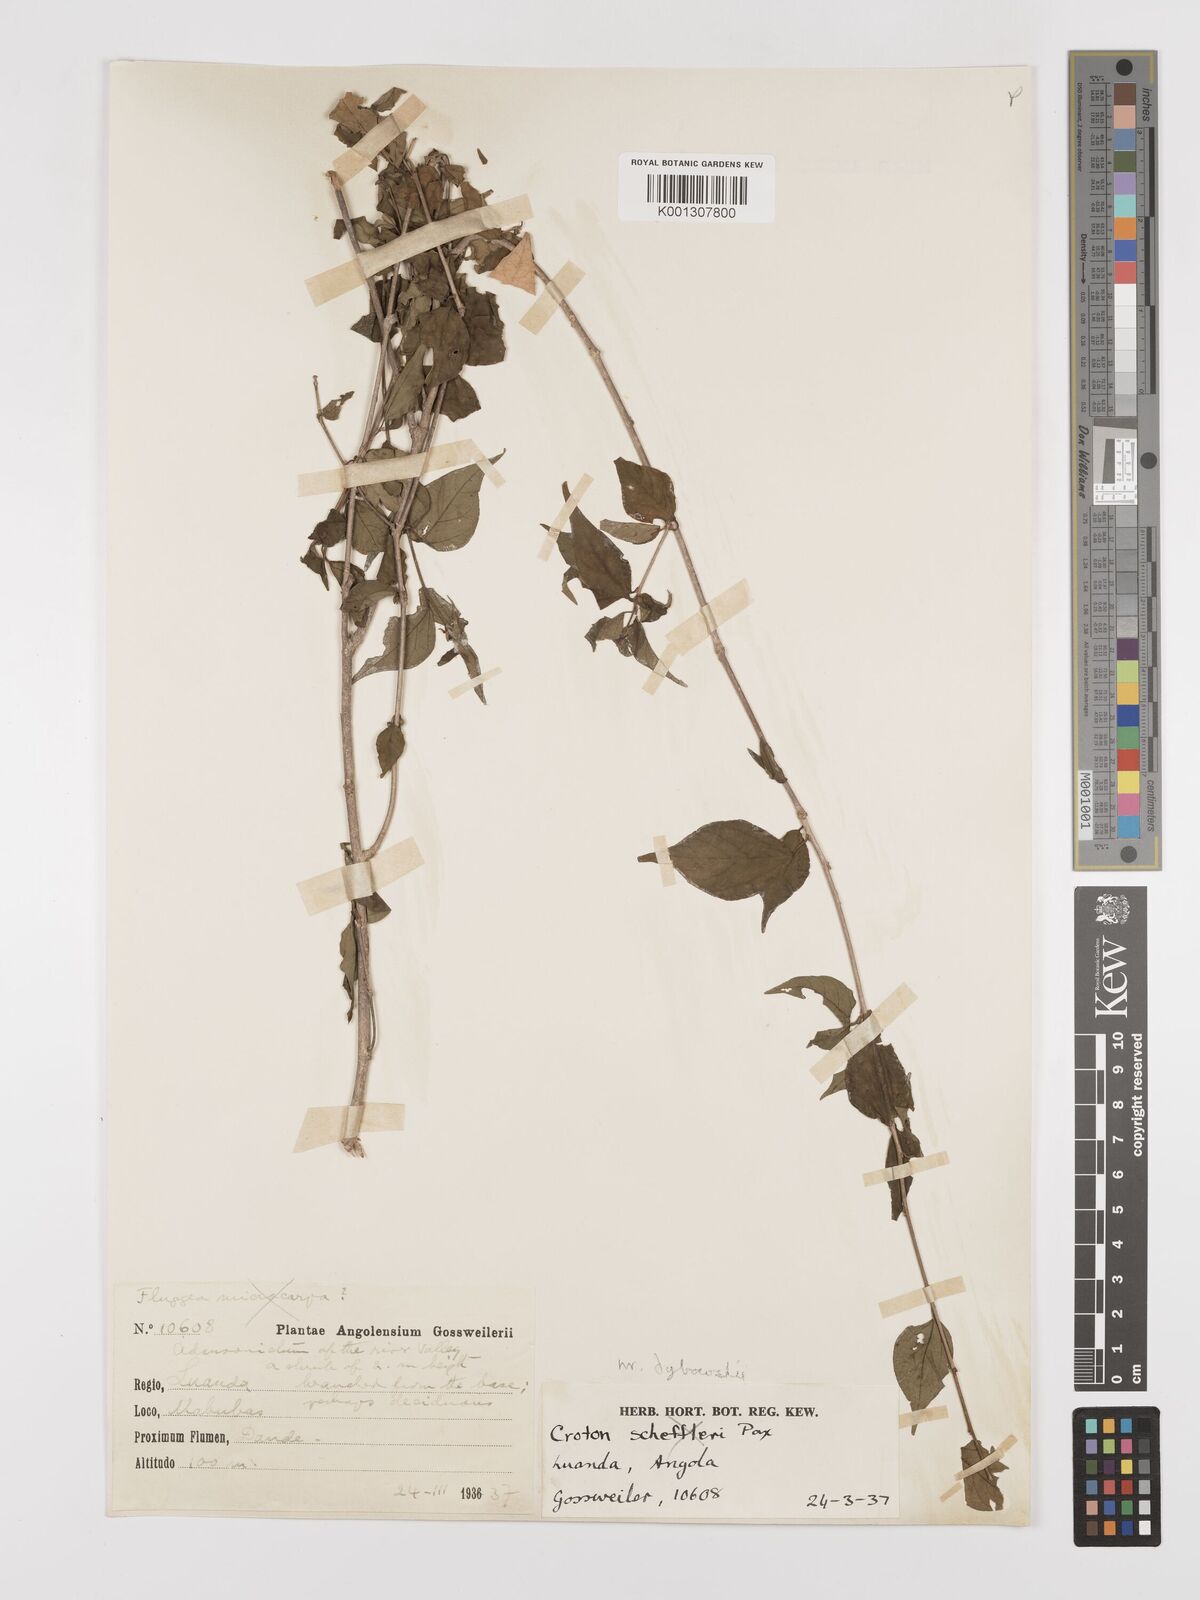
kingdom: Plantae
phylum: Tracheophyta
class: Magnoliopsida
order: Malpighiales
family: Euphorbiaceae
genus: Croton
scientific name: Croton longipedicellatus
